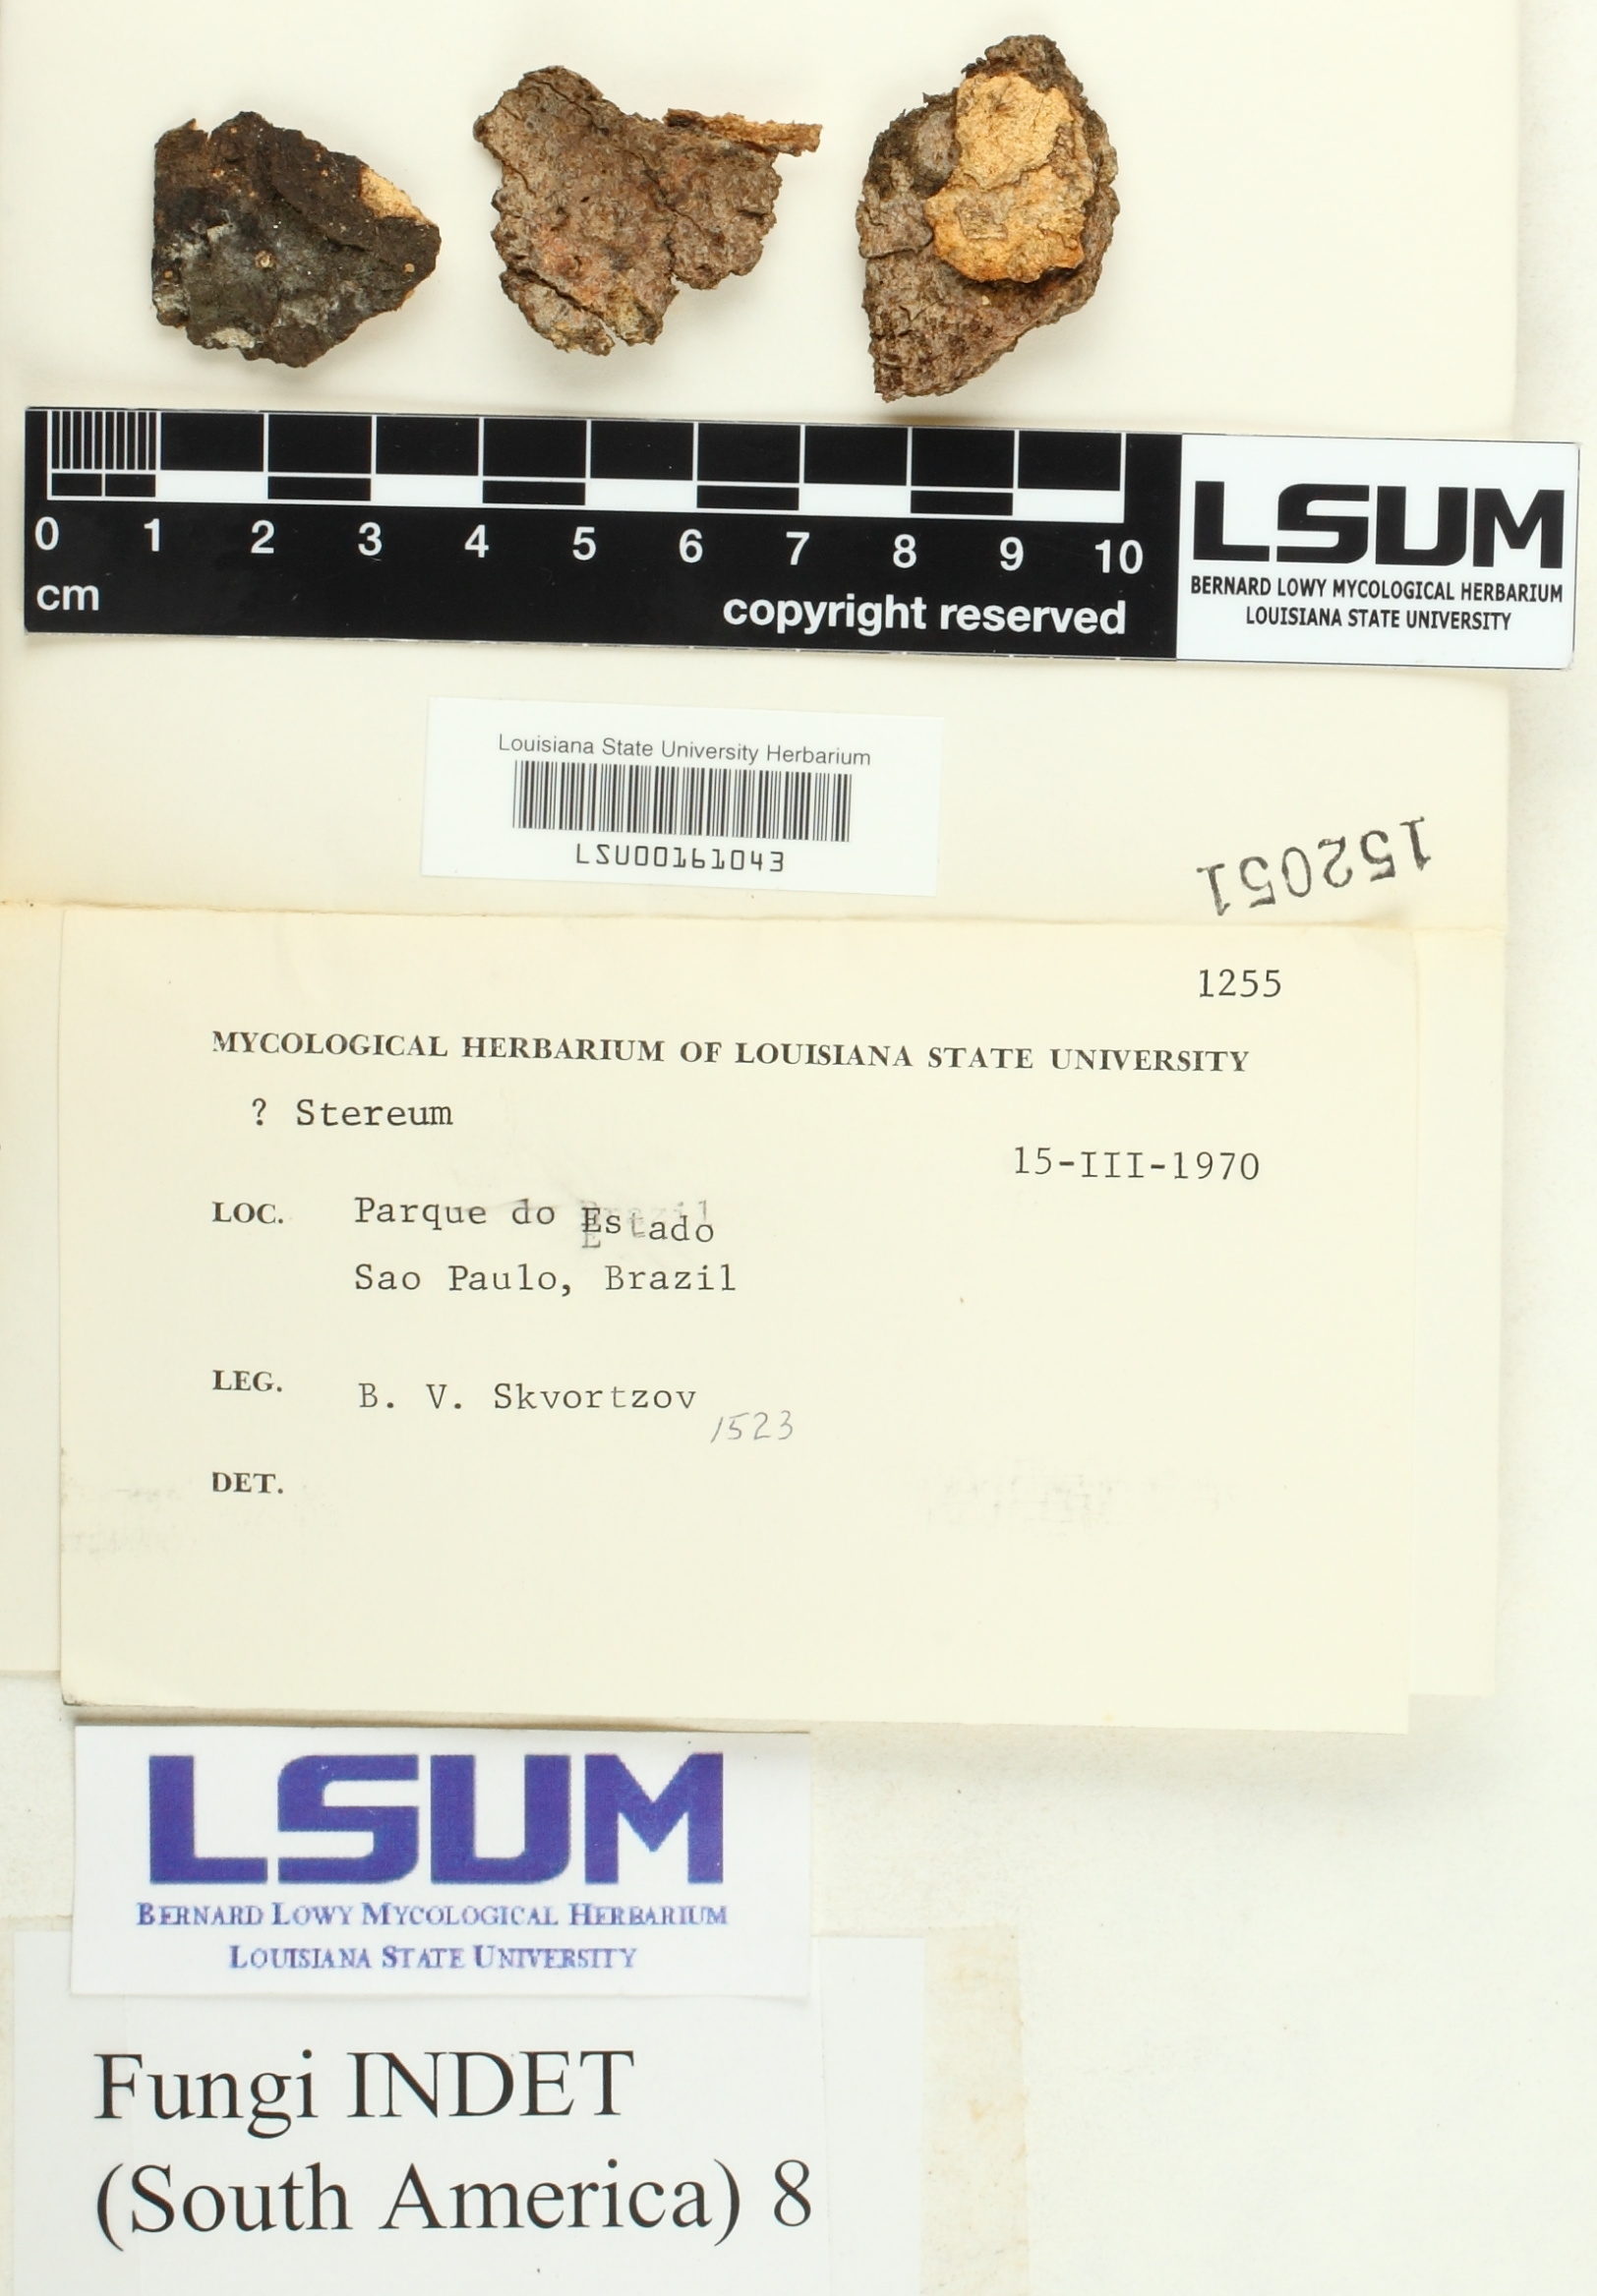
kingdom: Fungi
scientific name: Fungi
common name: Fungi
